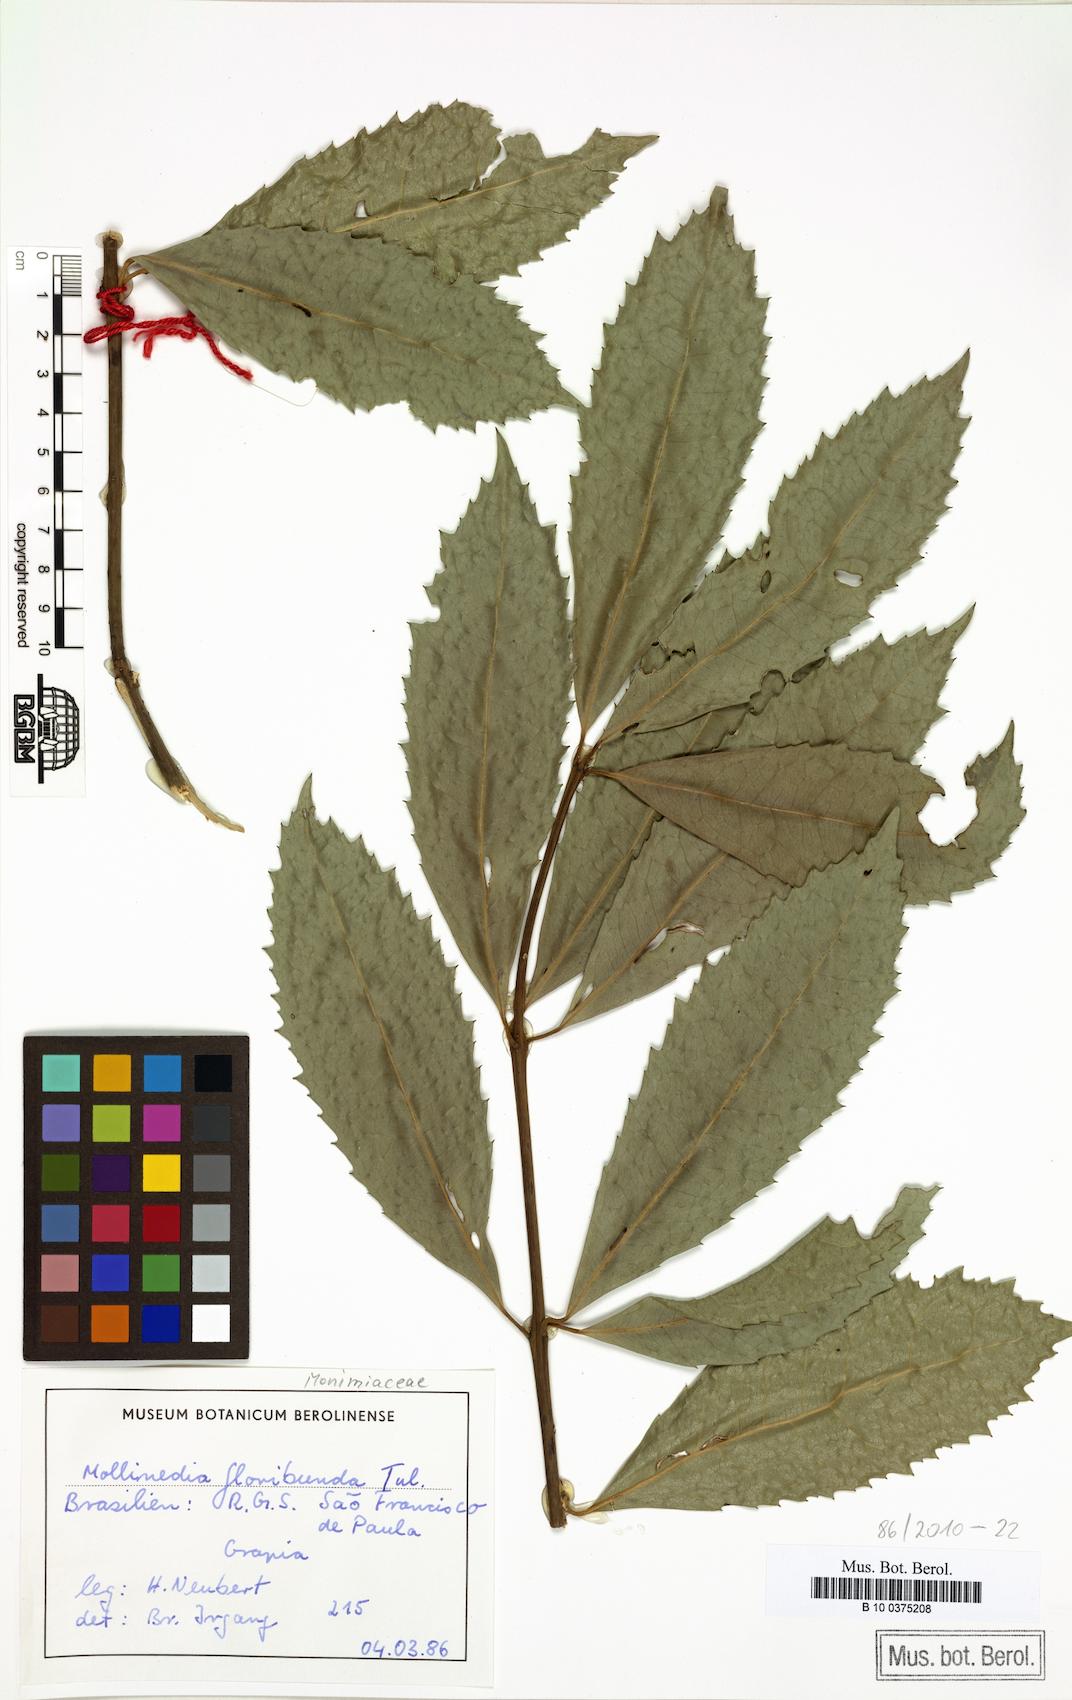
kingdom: Plantae
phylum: Tracheophyta
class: Magnoliopsida
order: Laurales
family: Monimiaceae
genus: Hennecartia
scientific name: Hennecartia omphalandra
